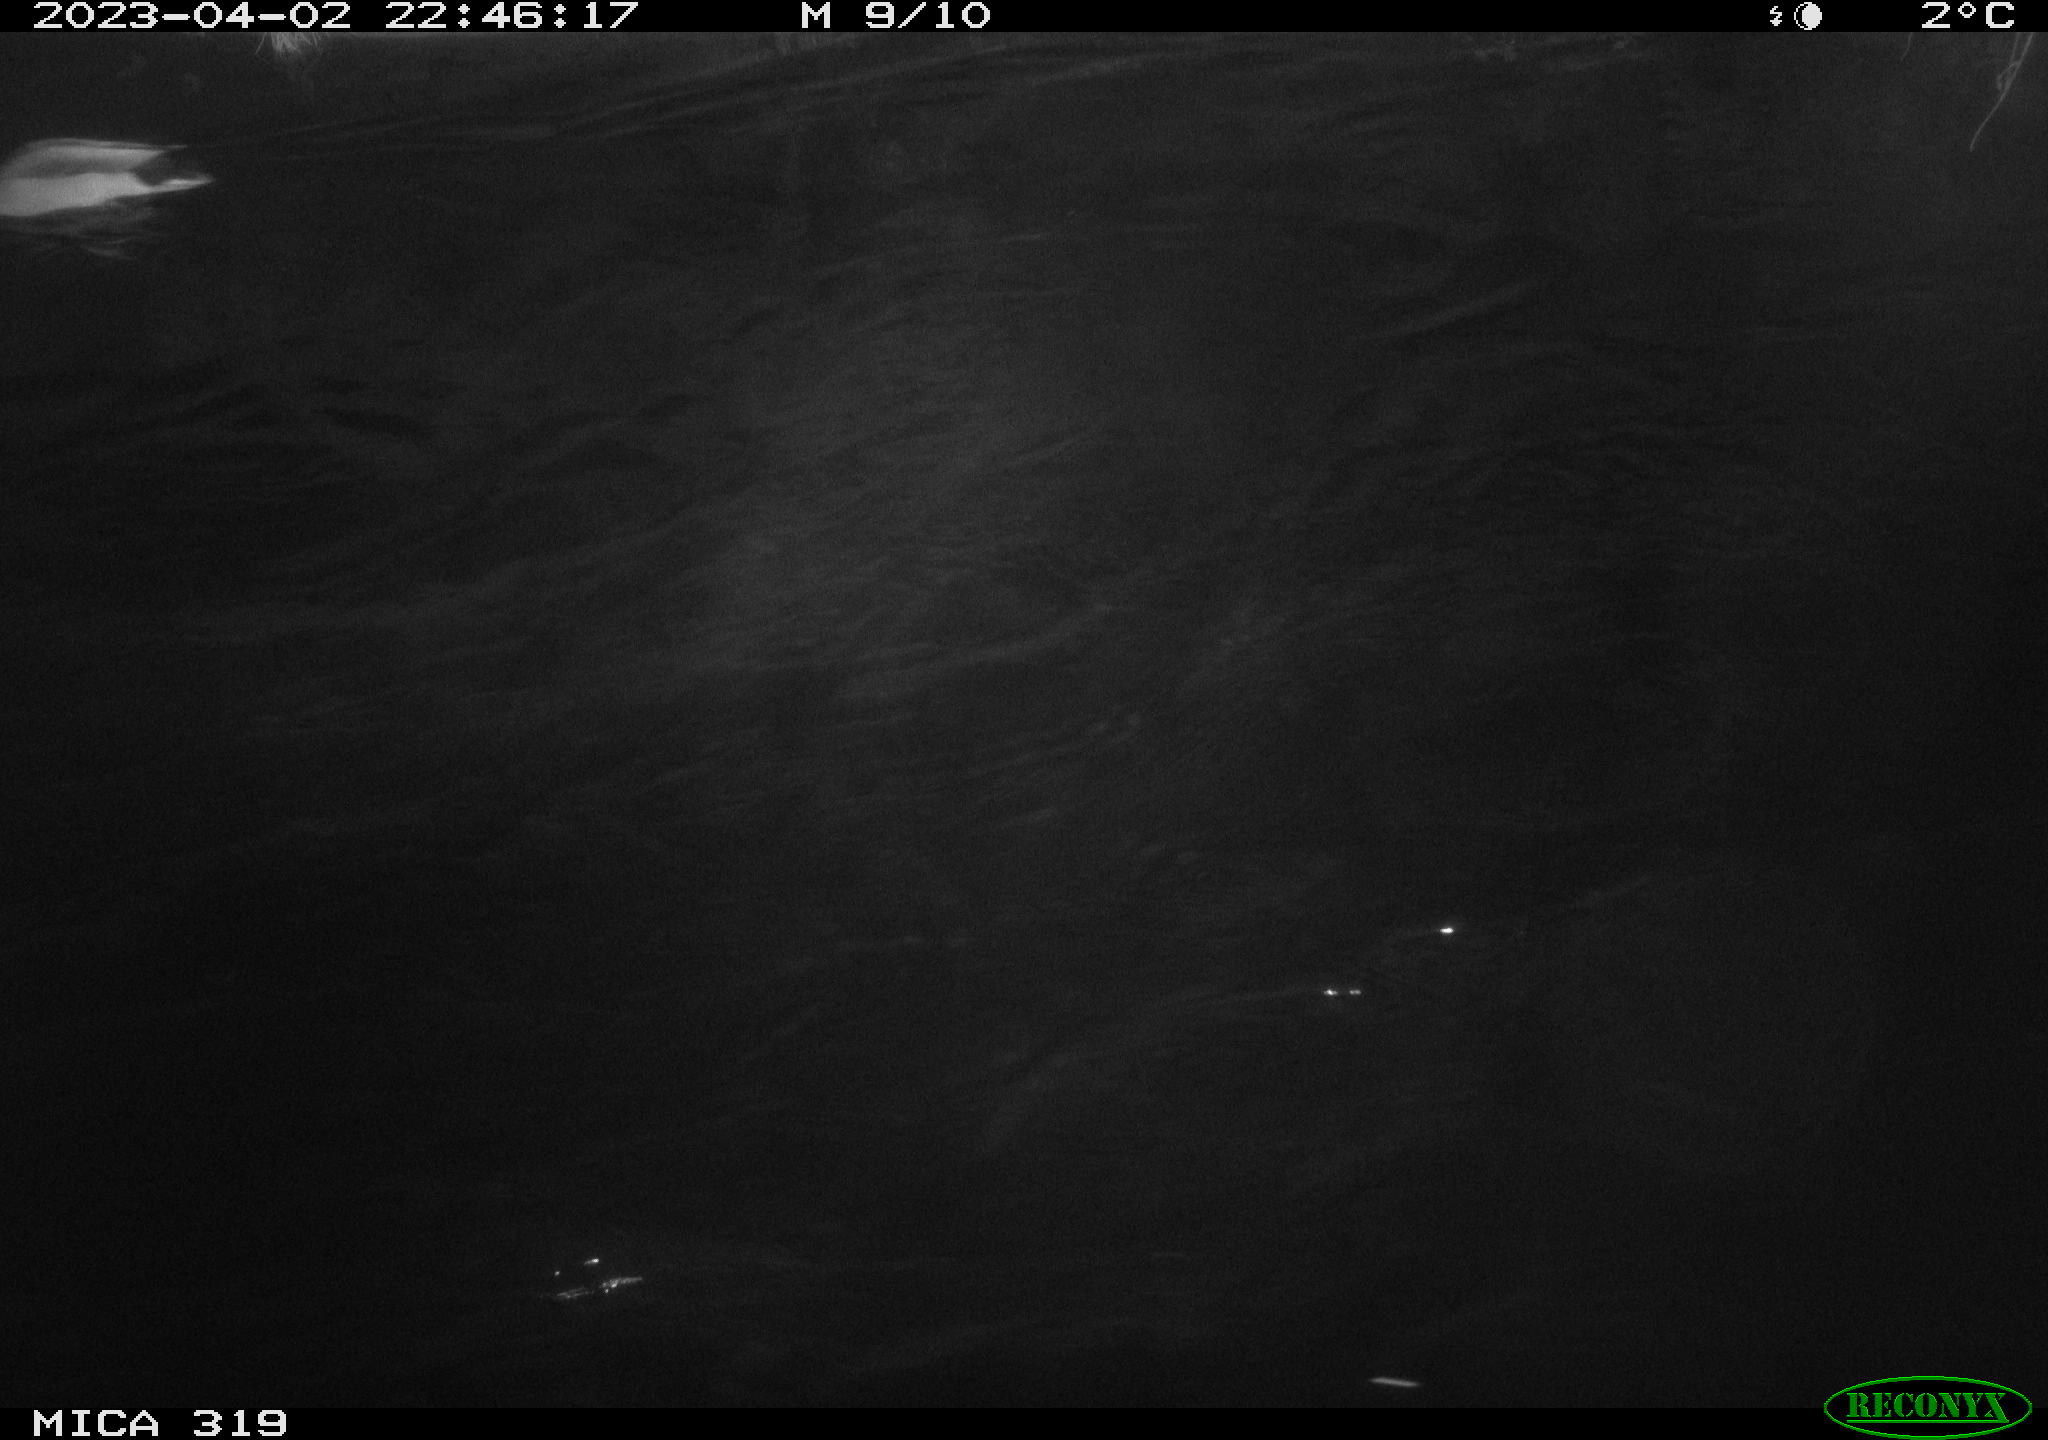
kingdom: Animalia
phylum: Chordata
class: Aves
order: Anseriformes
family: Anatidae
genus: Anas
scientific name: Anas
